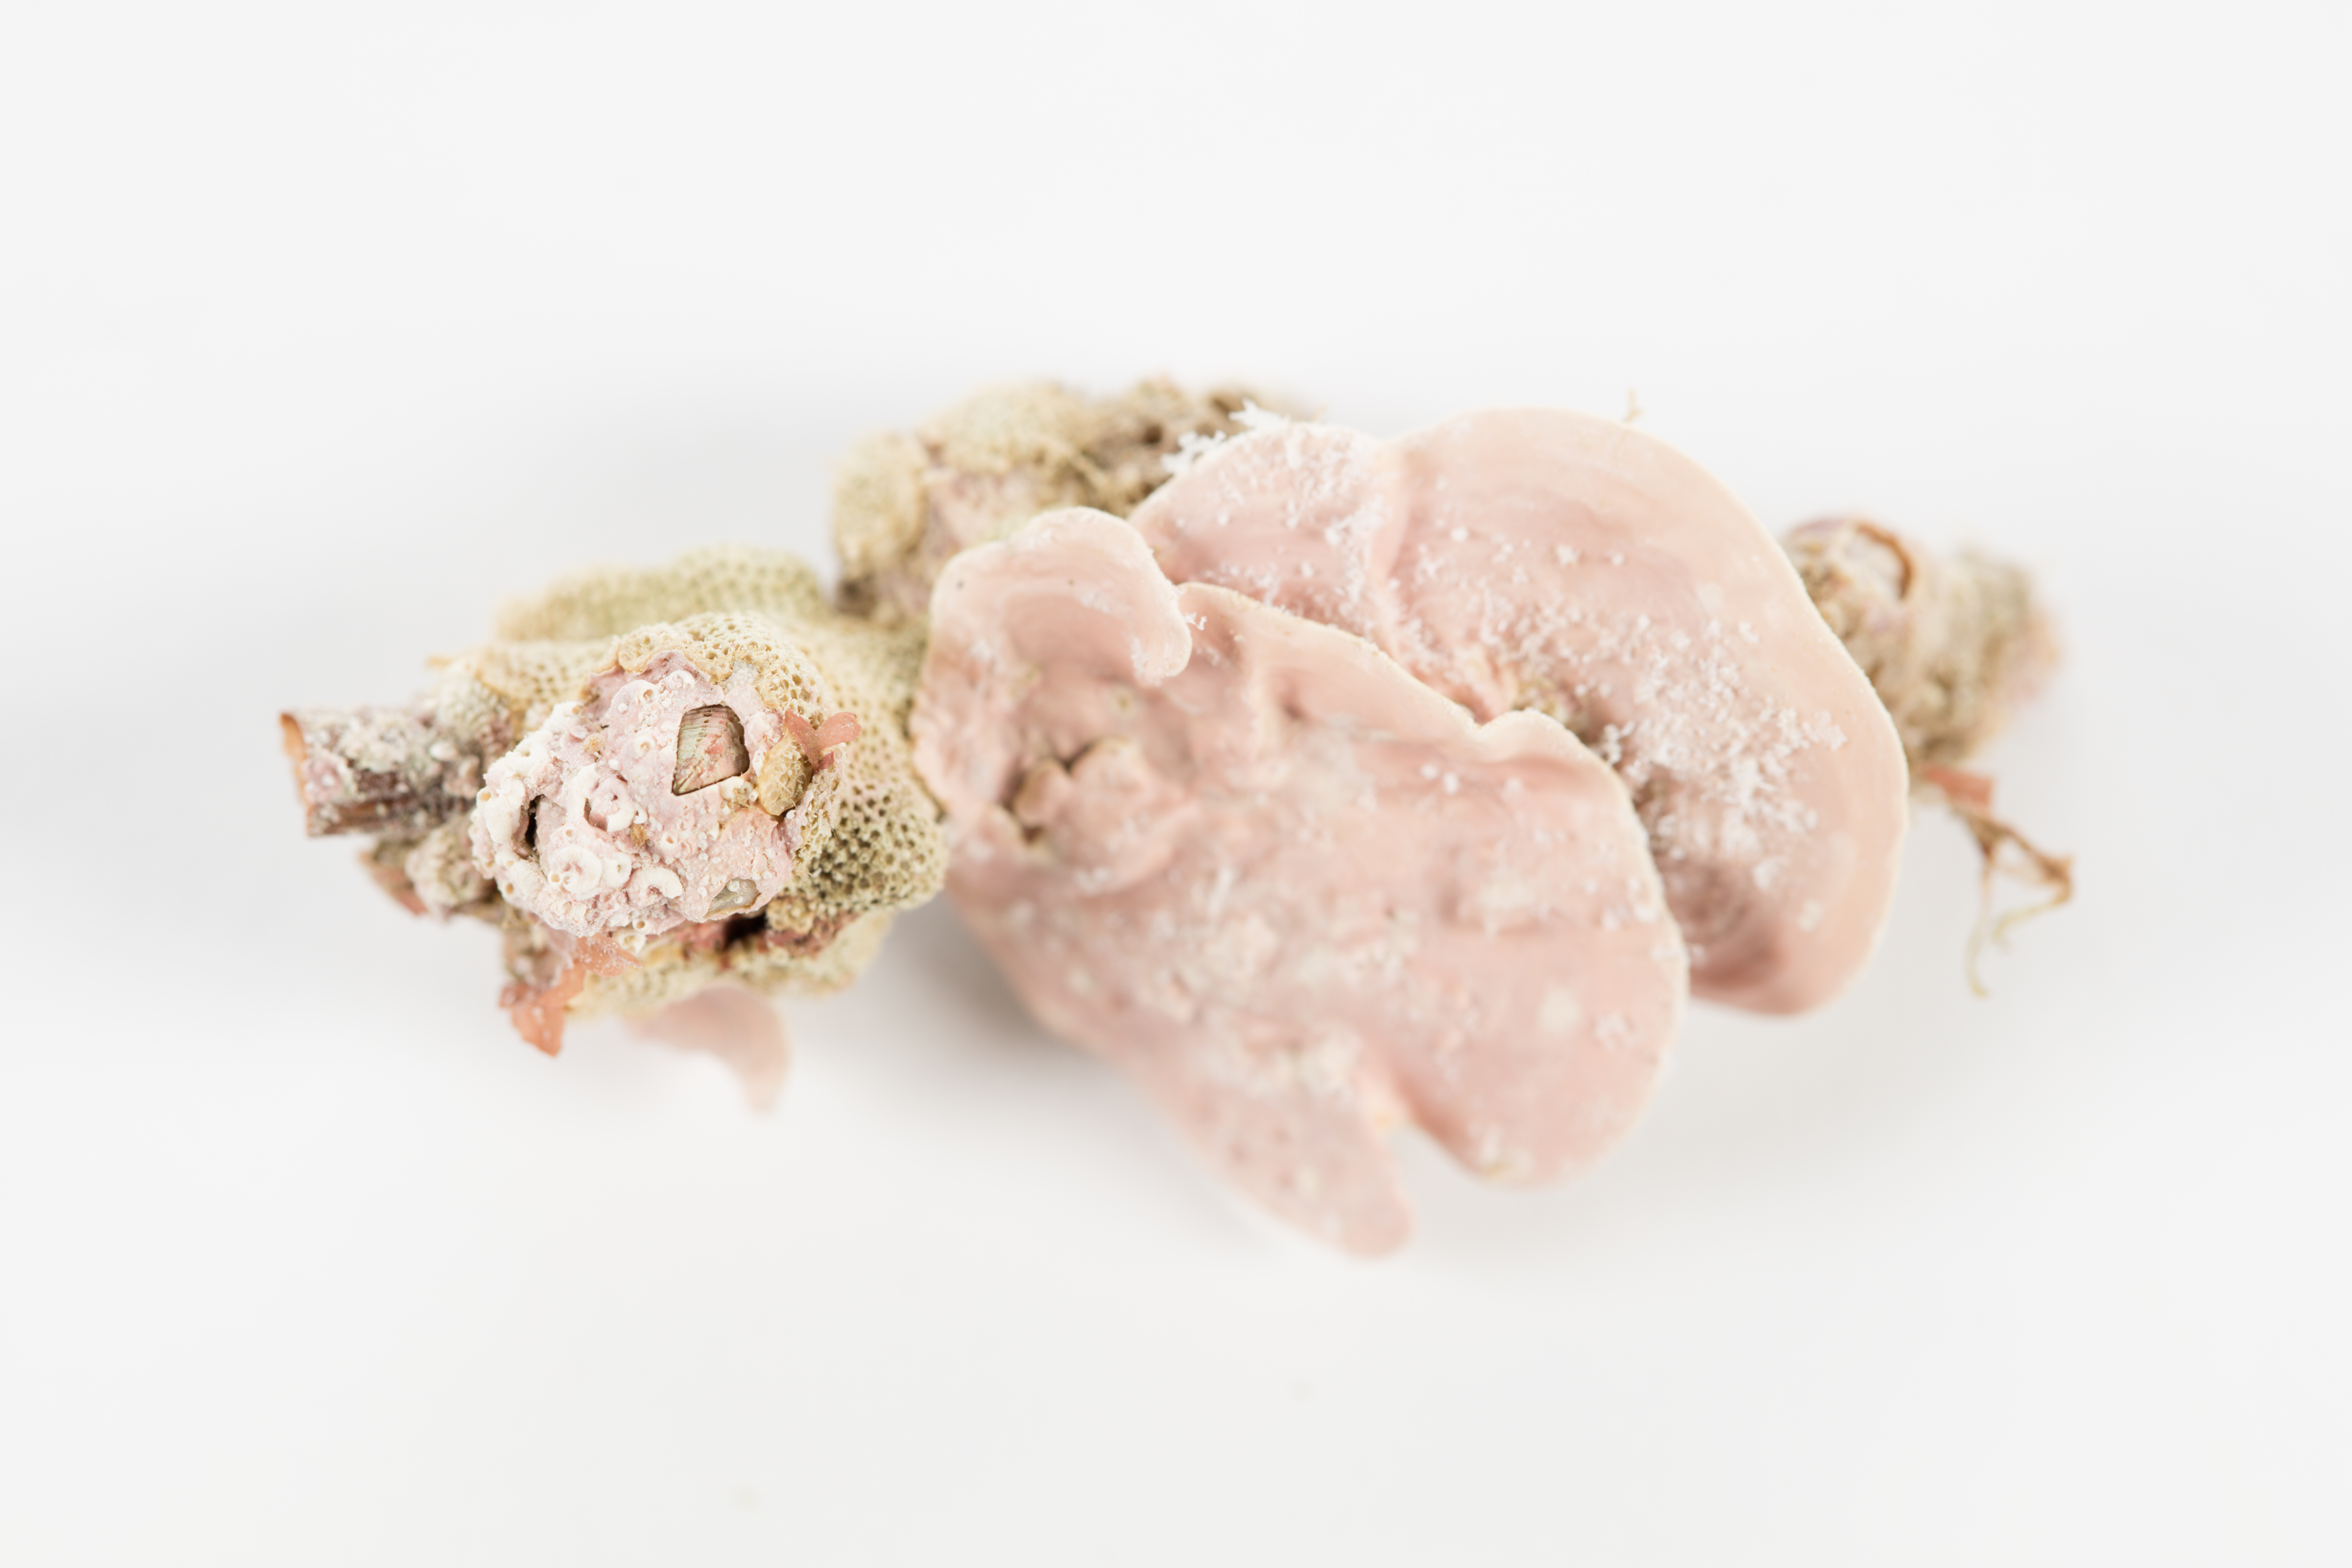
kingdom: Plantae
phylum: Rhodophyta
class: Florideophyceae
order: Corallinales
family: Mesophyllumaceae
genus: Mesophyllum
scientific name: Mesophyllum
